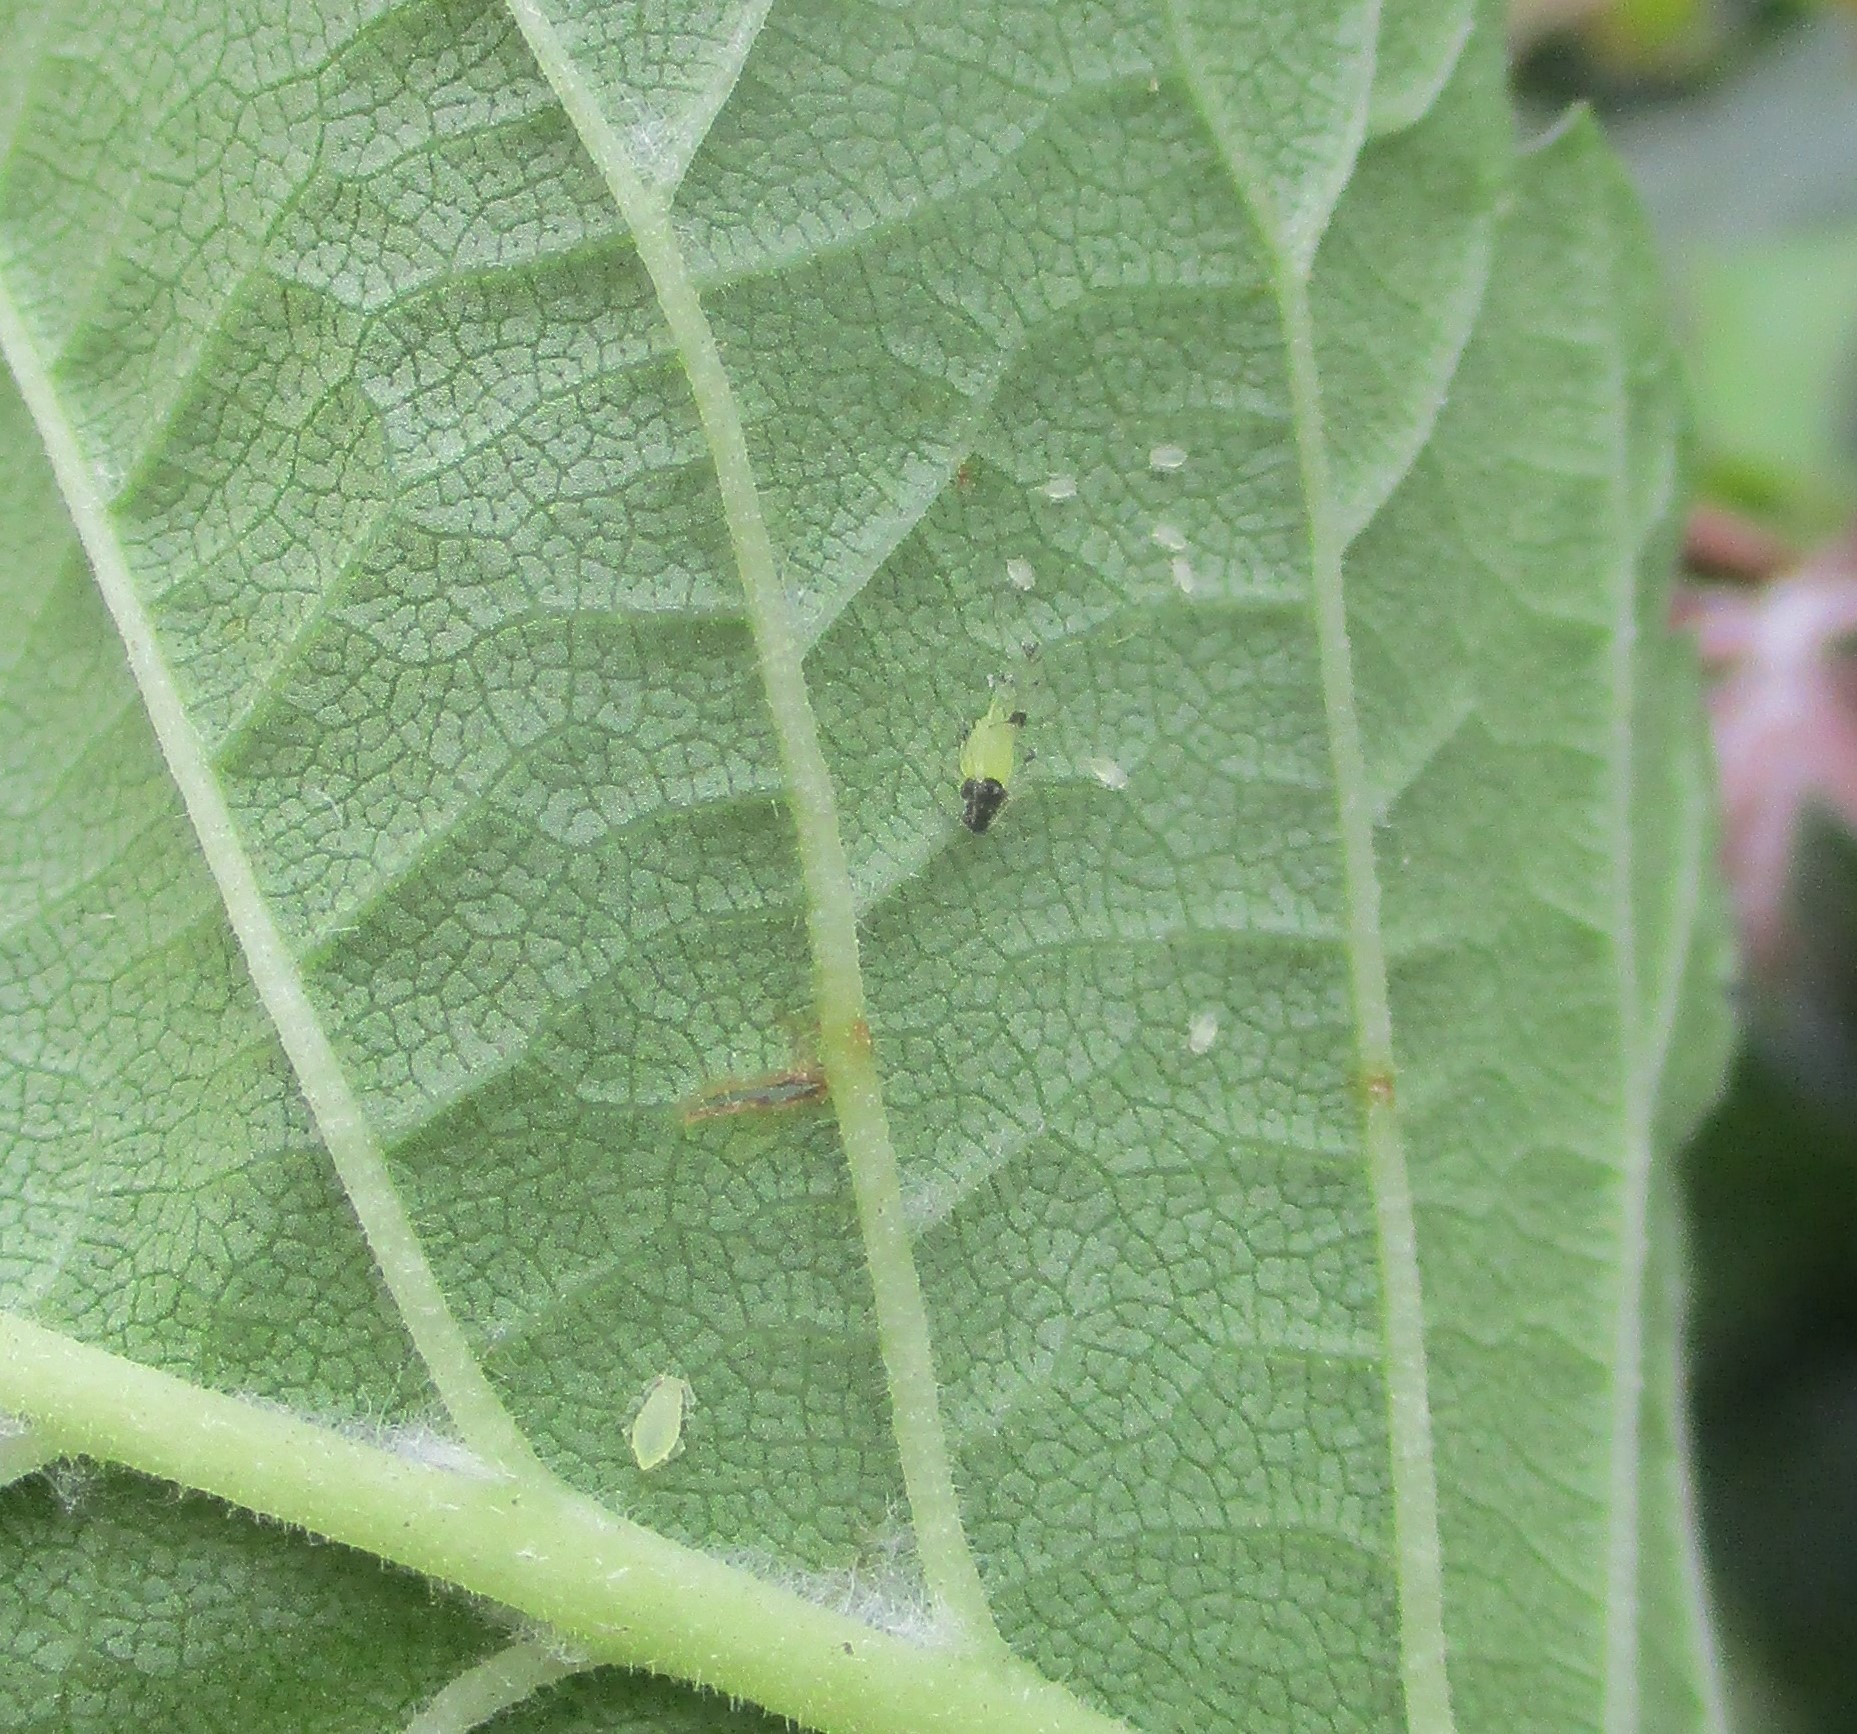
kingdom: Animalia
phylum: Arthropoda
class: Insecta
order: Hemiptera
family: Aphididae
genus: Tinocallis
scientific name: Tinocallis takachihoensis
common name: Asiatisk elmebladlus
